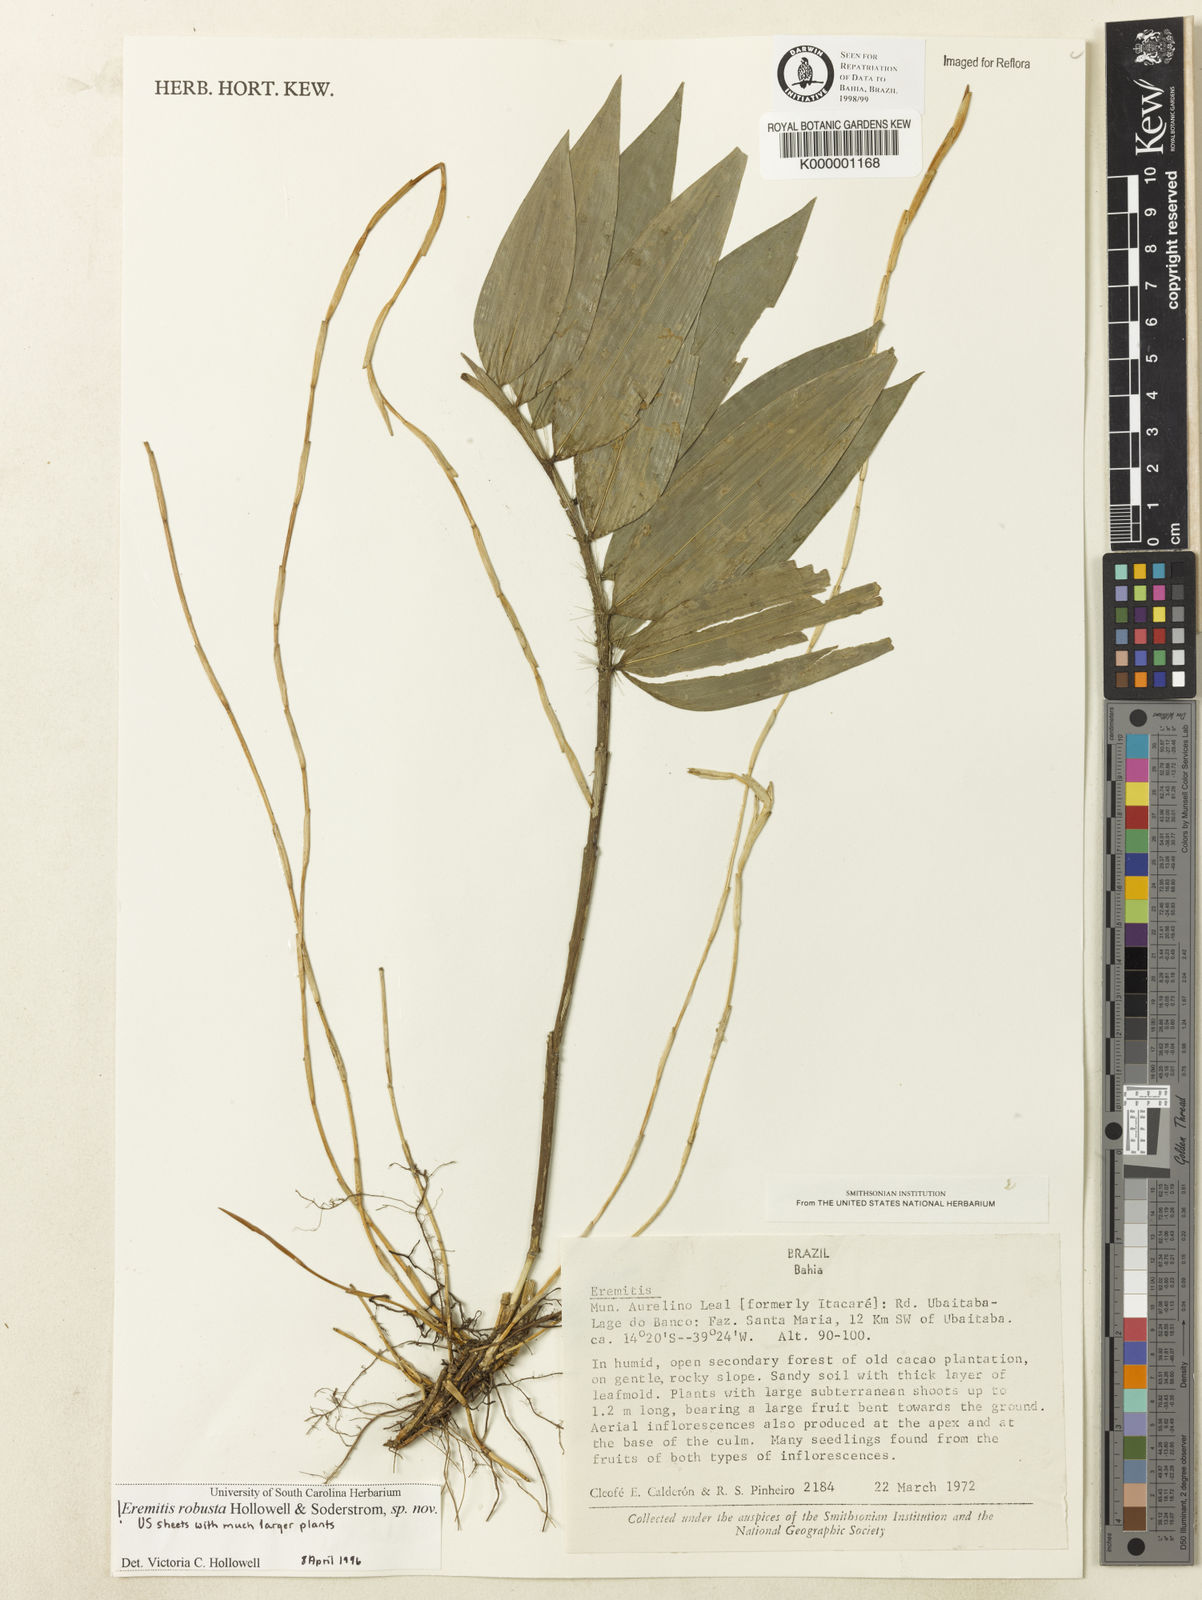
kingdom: Plantae
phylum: Tracheophyta
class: Liliopsida
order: Poales
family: Poaceae
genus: Eremitis
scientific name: Eremitis
